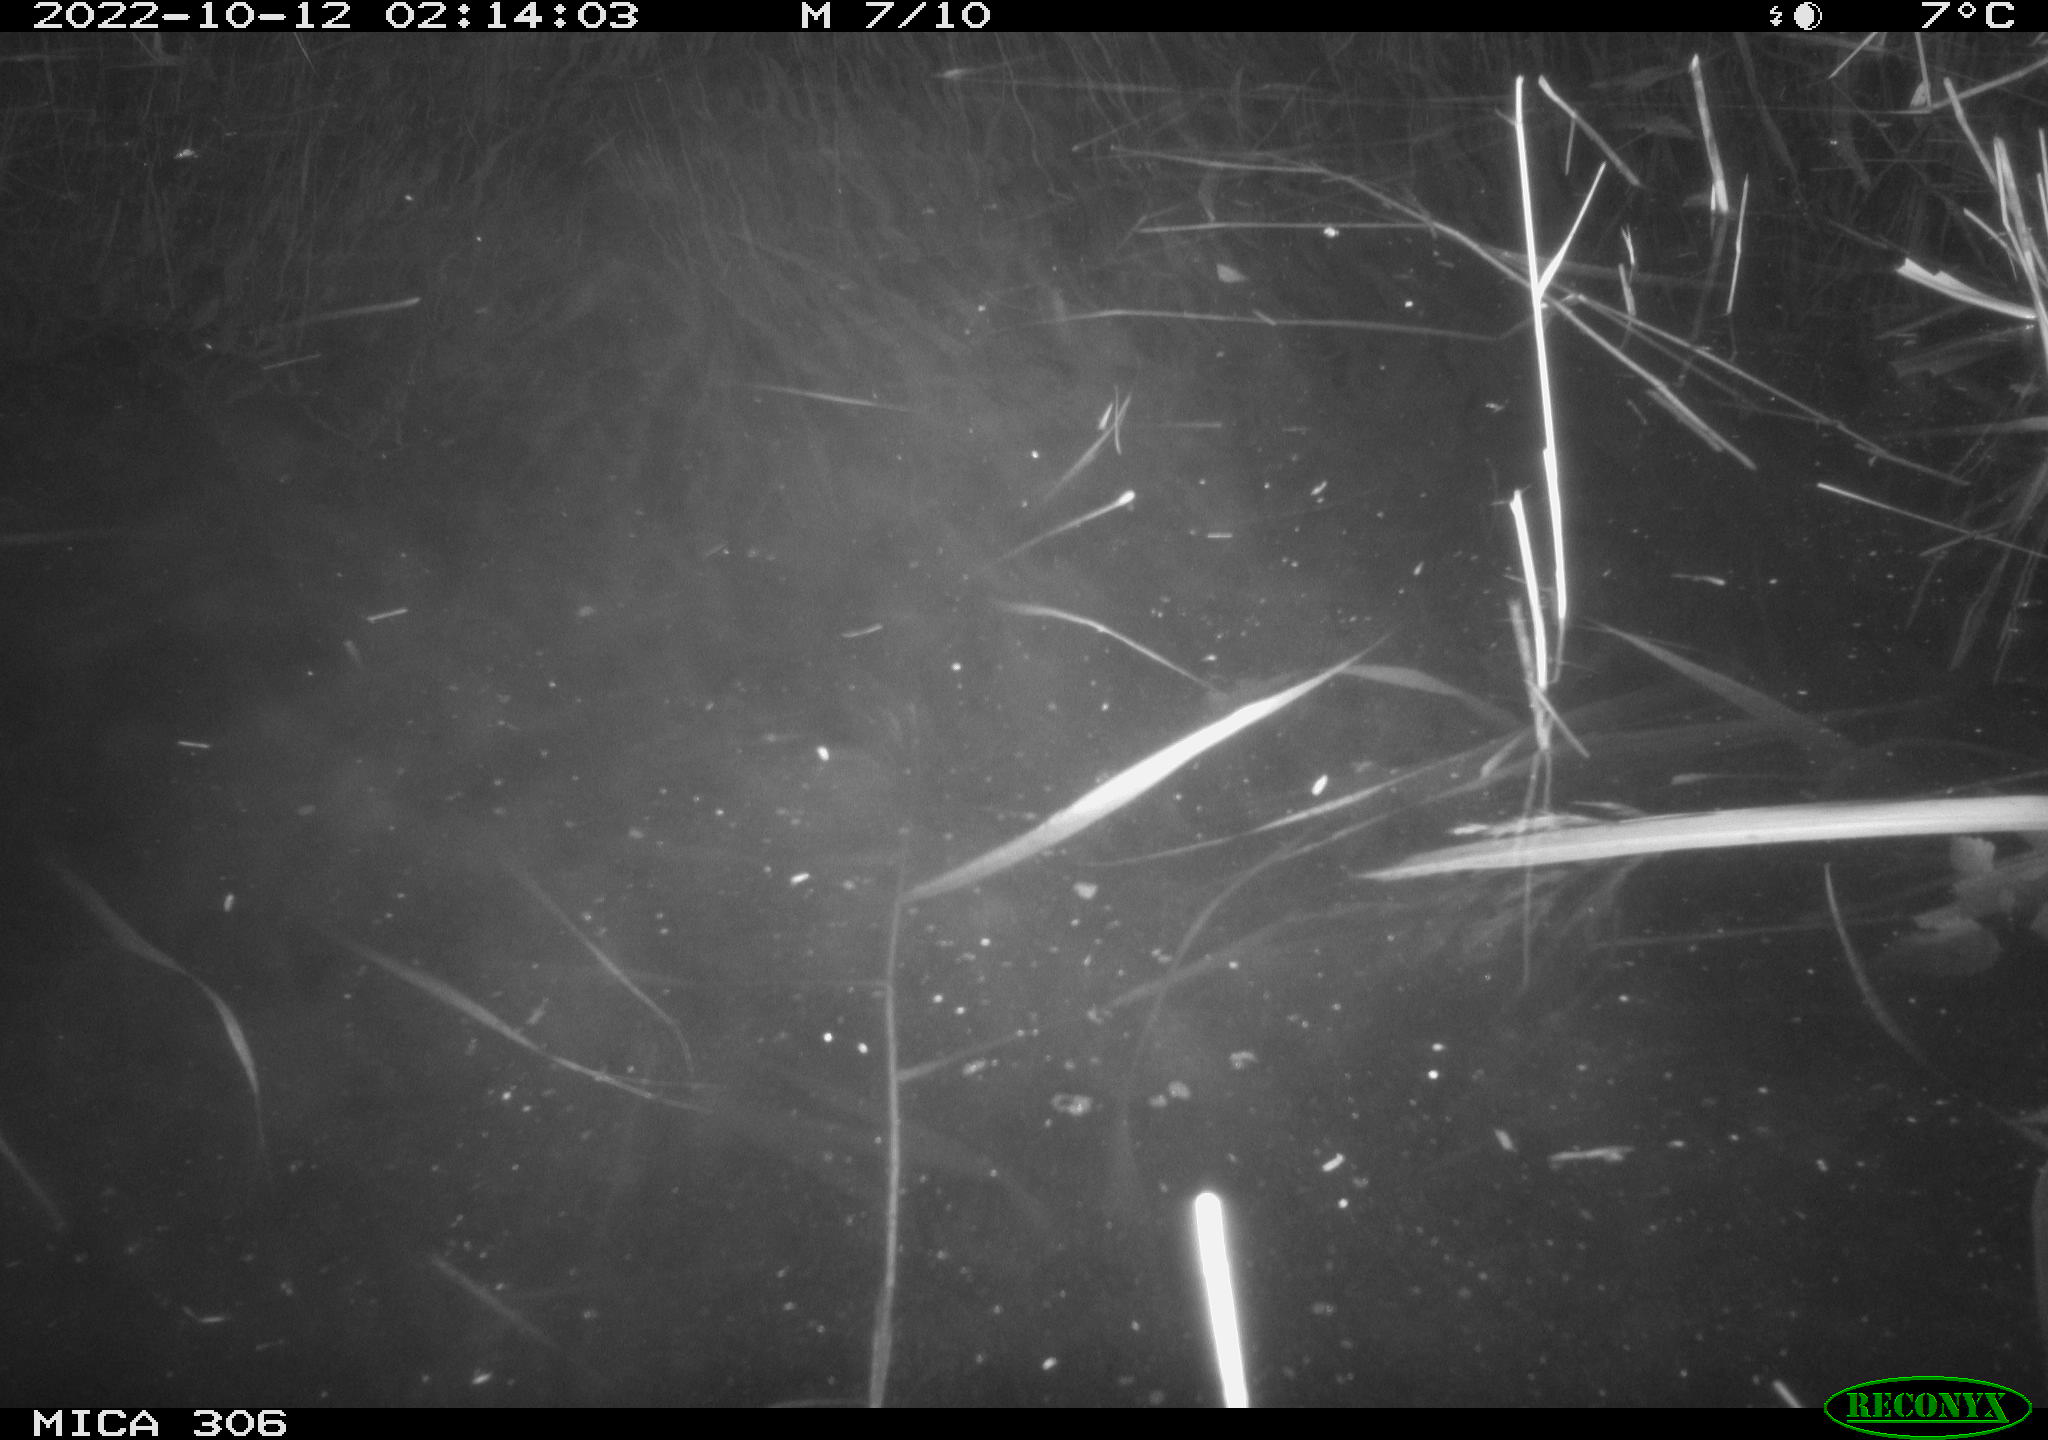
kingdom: Animalia
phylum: Chordata
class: Mammalia
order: Rodentia
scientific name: Rodentia
